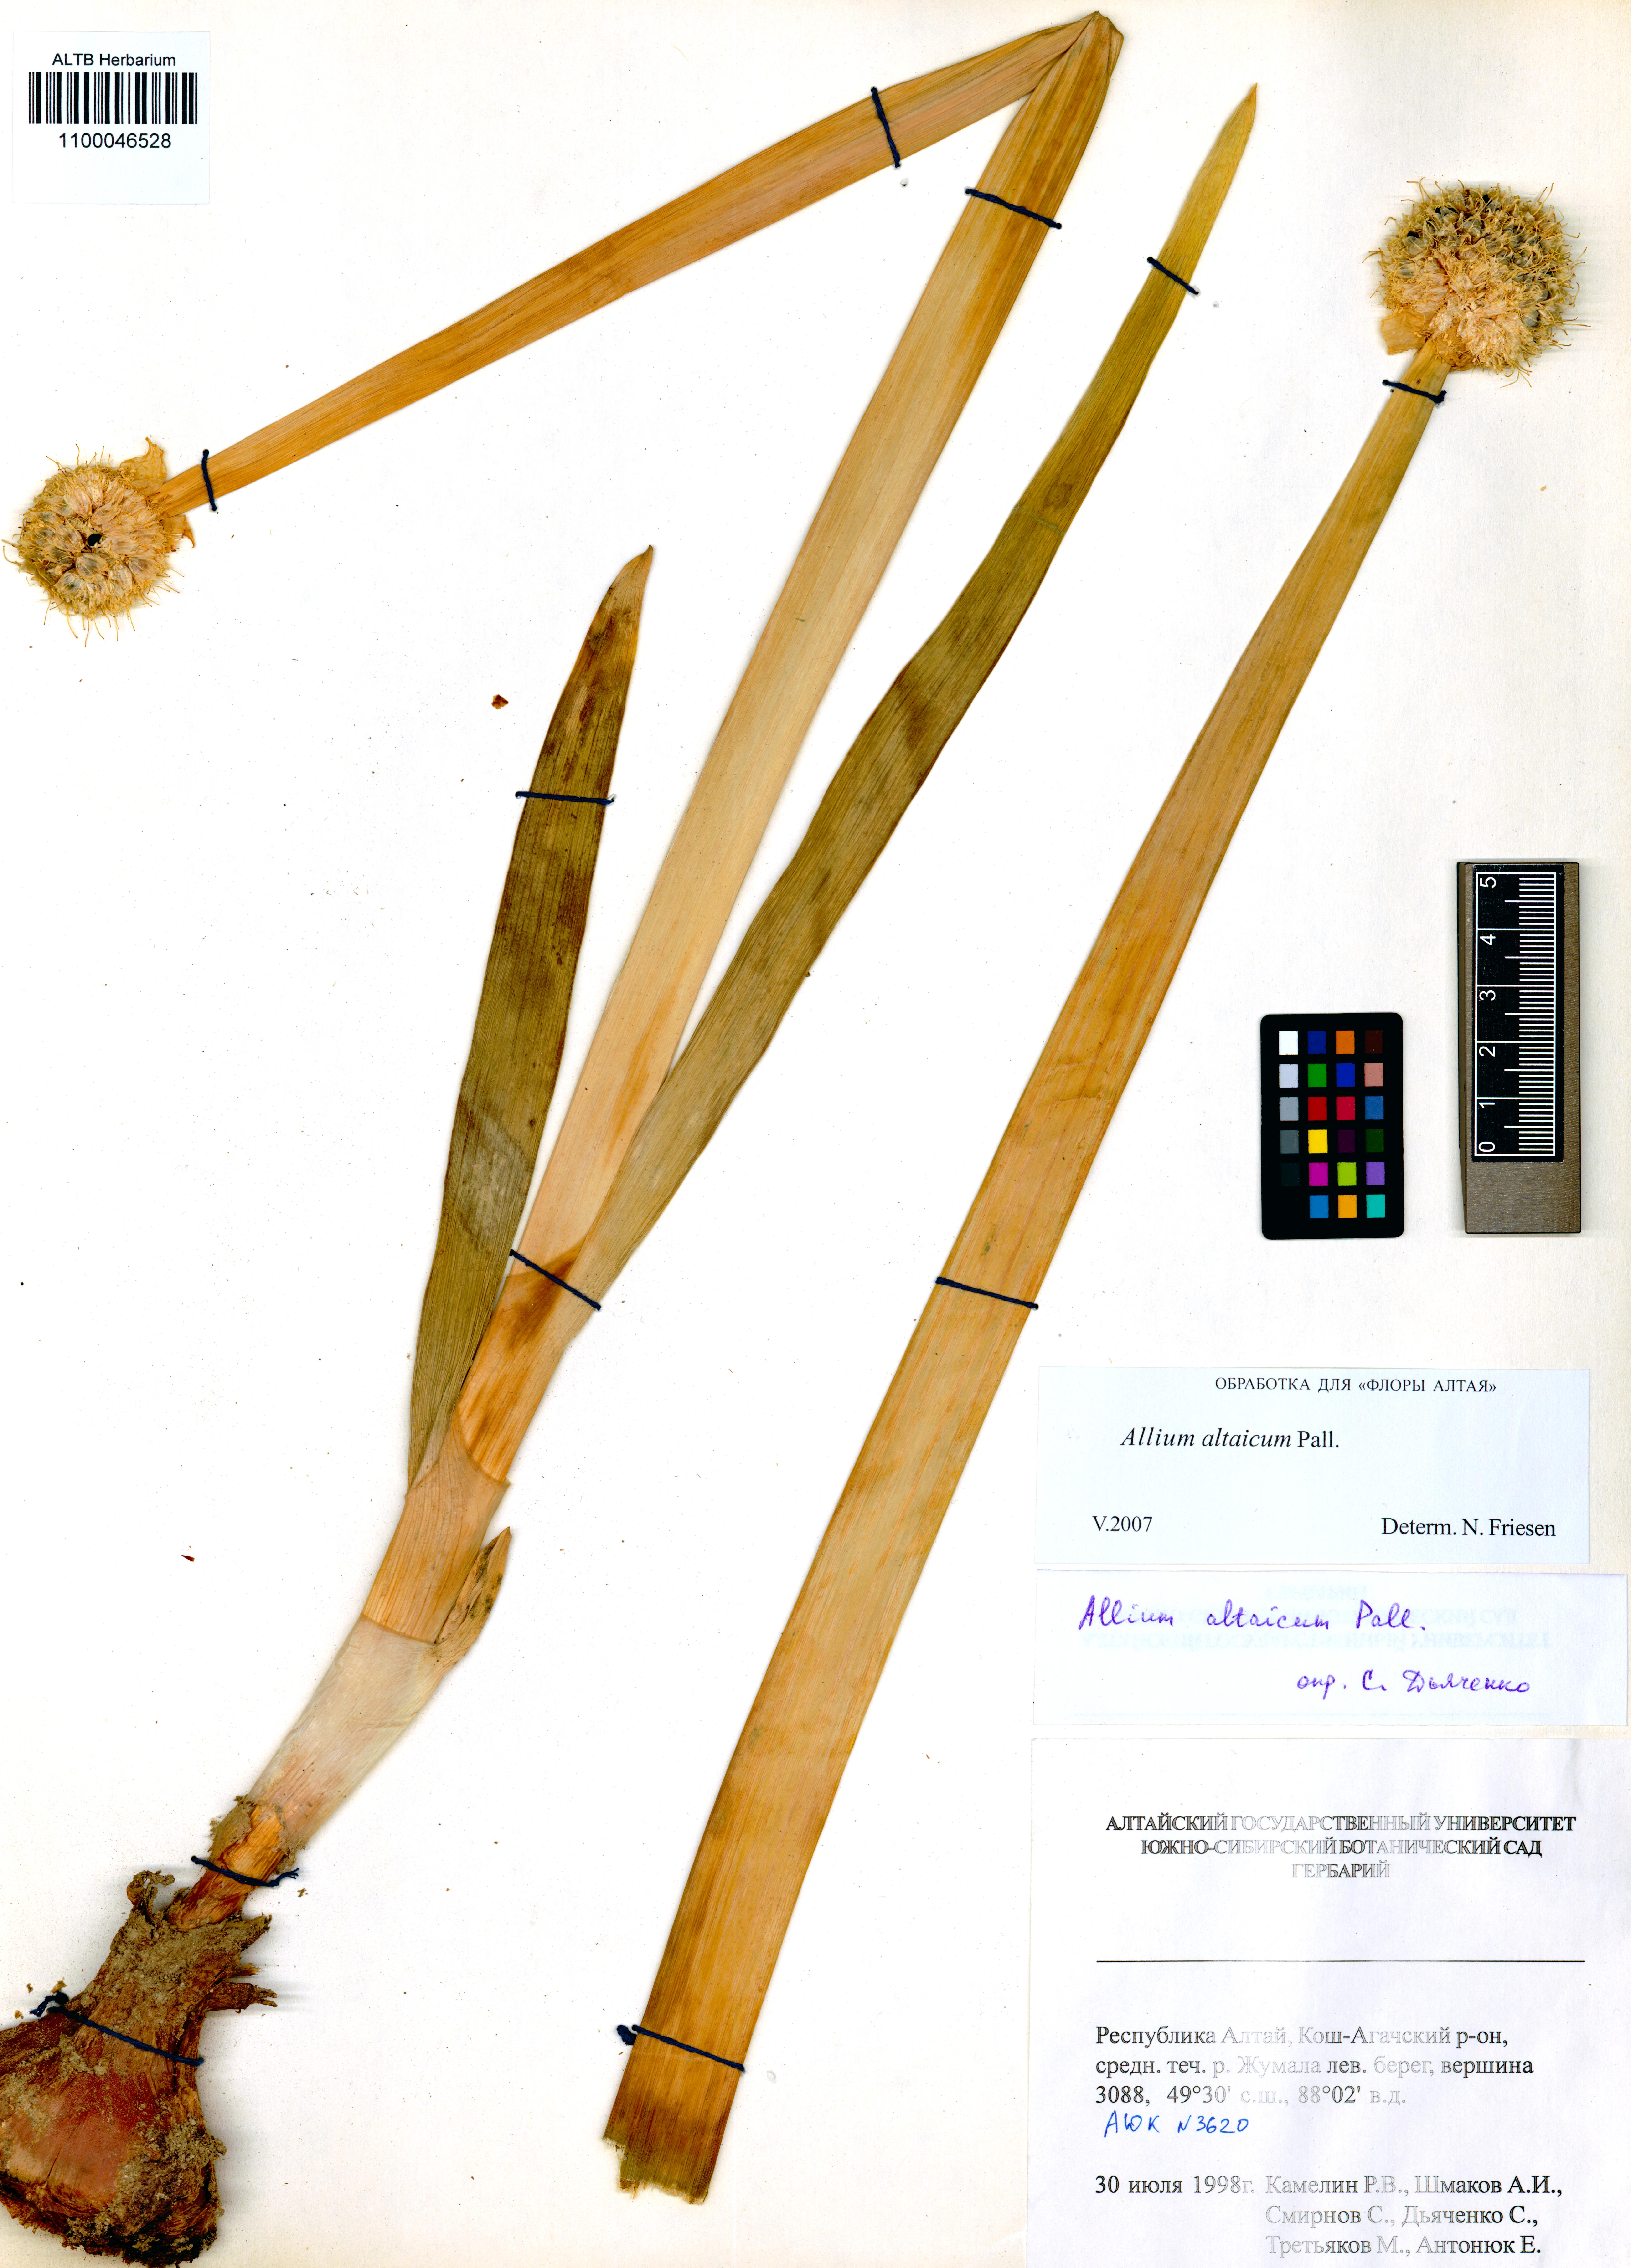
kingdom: Plantae
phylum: Tracheophyta
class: Liliopsida
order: Asparagales
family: Amaryllidaceae
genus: Allium
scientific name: Allium altaicum
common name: Altai onion
